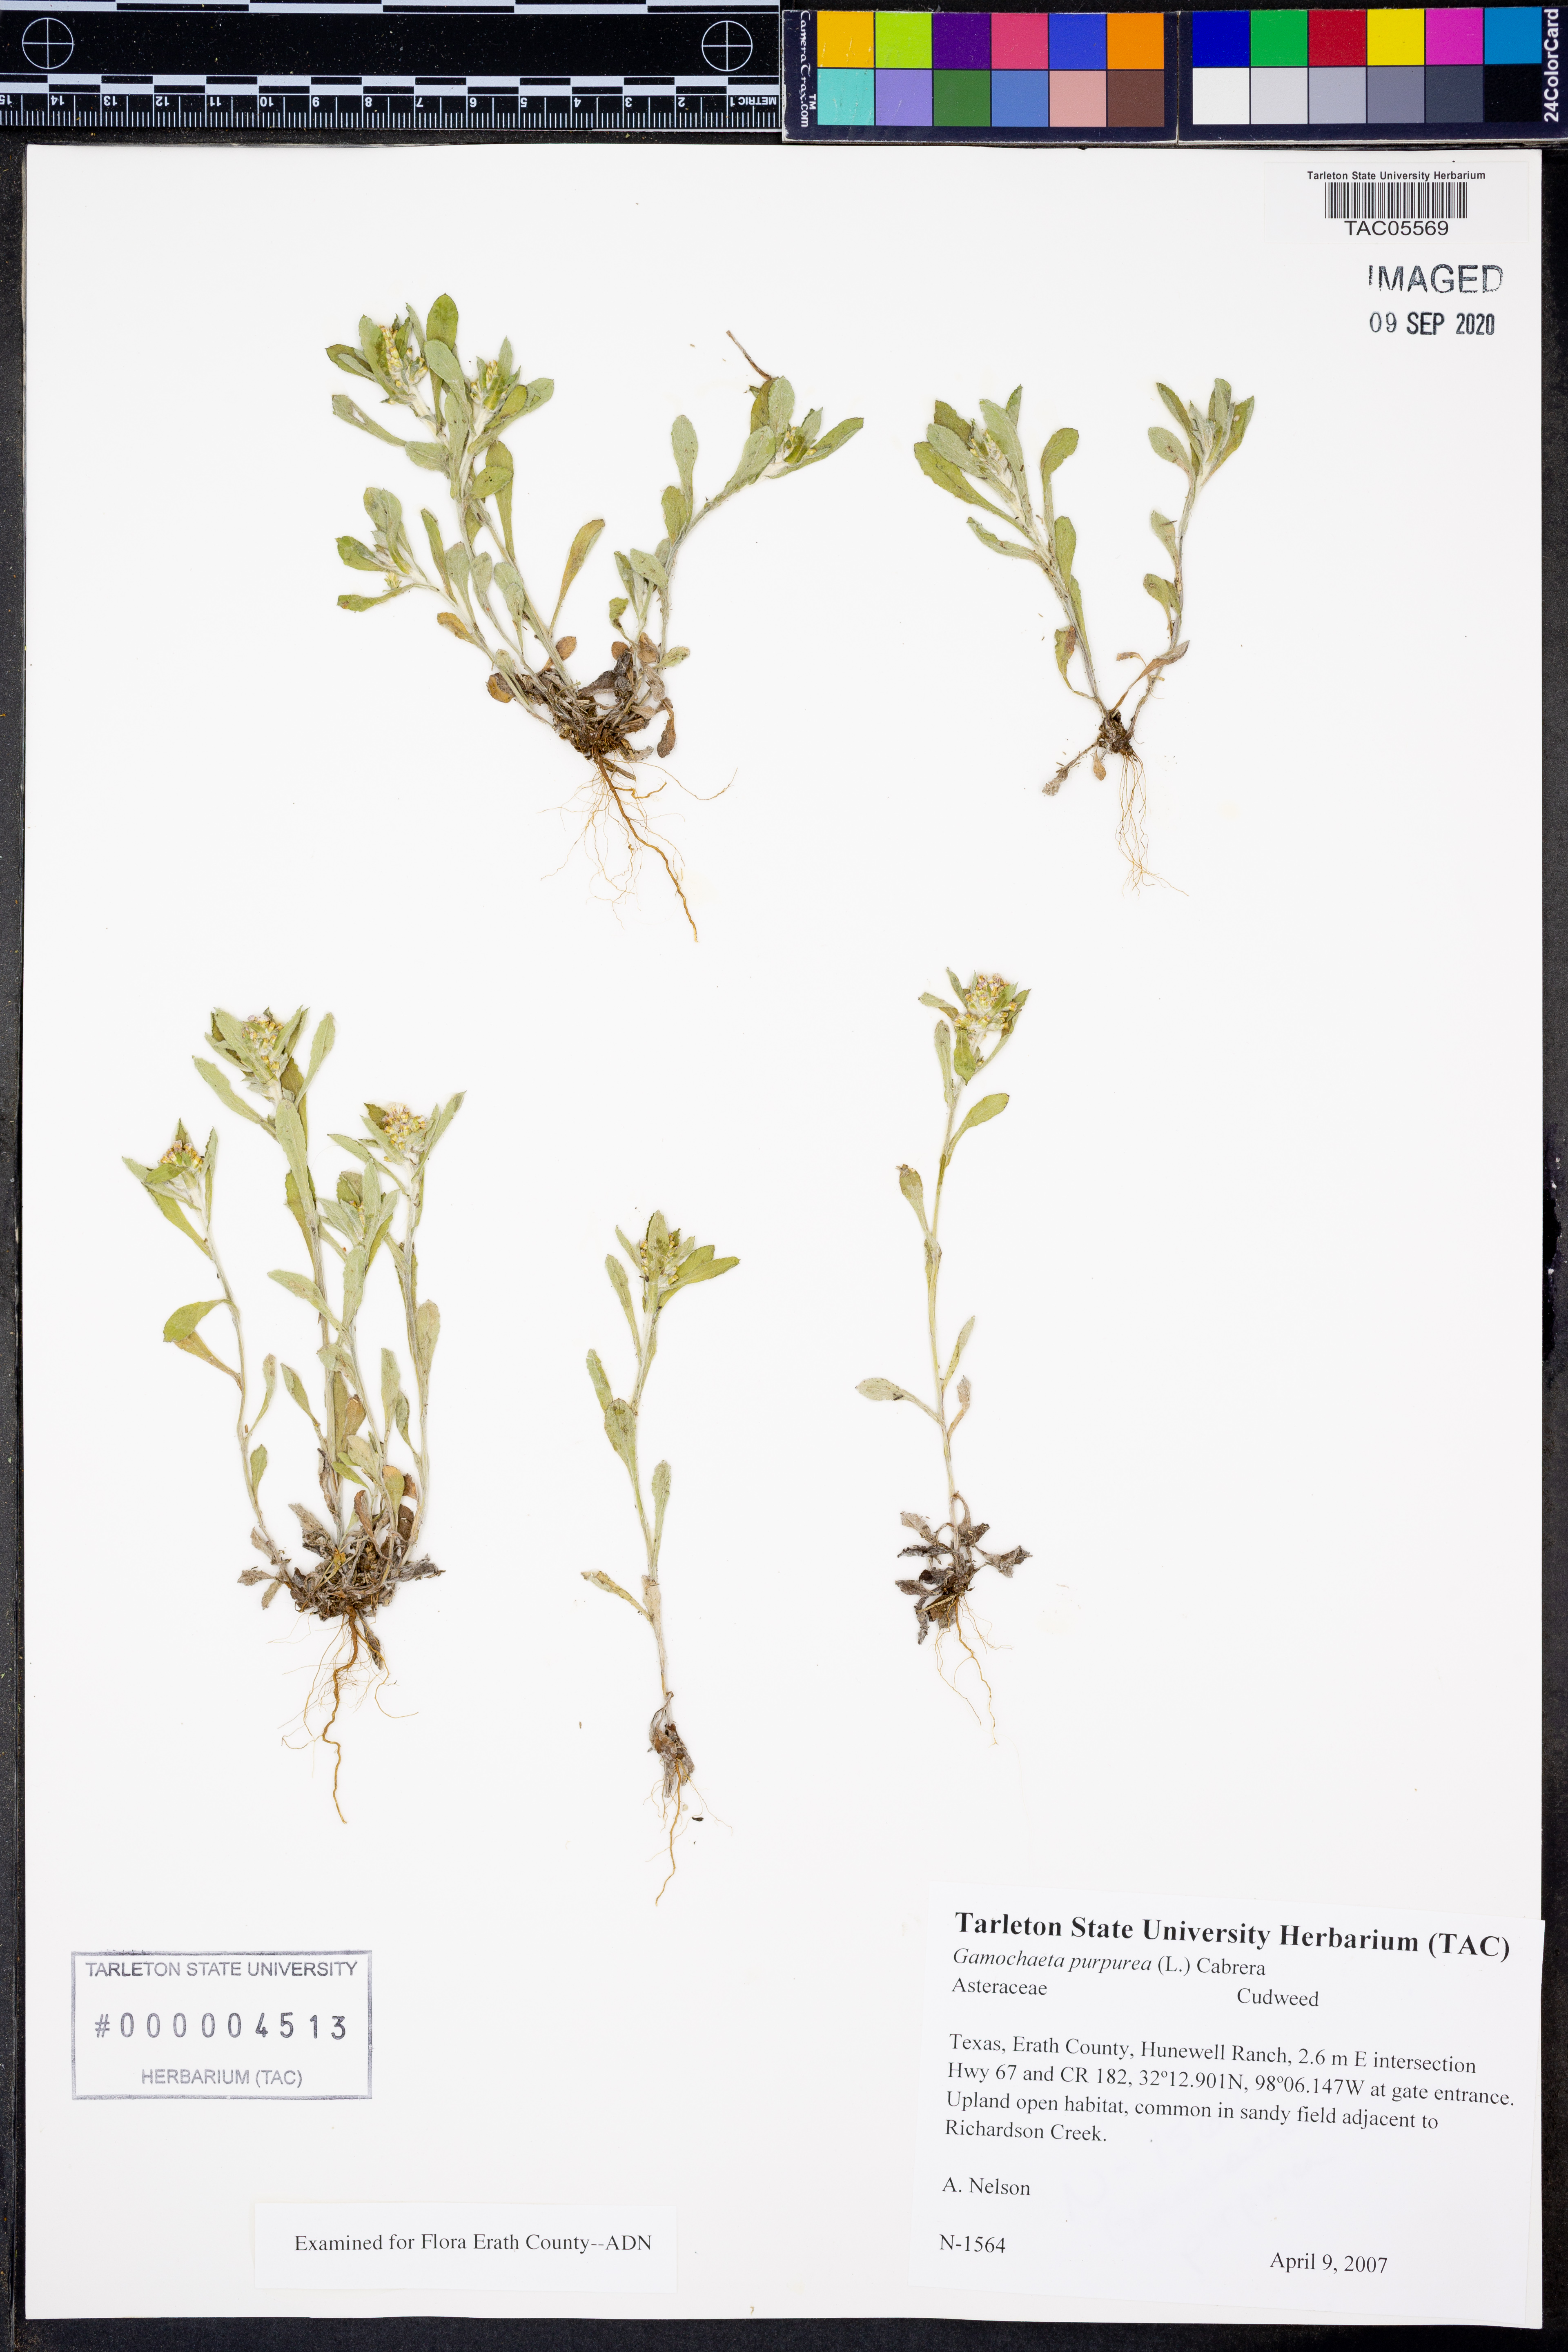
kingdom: Plantae
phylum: Tracheophyta
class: Magnoliopsida
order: Asterales
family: Asteraceae
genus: Gamochaeta
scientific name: Gamochaeta purpurea
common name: Purple cudweed
